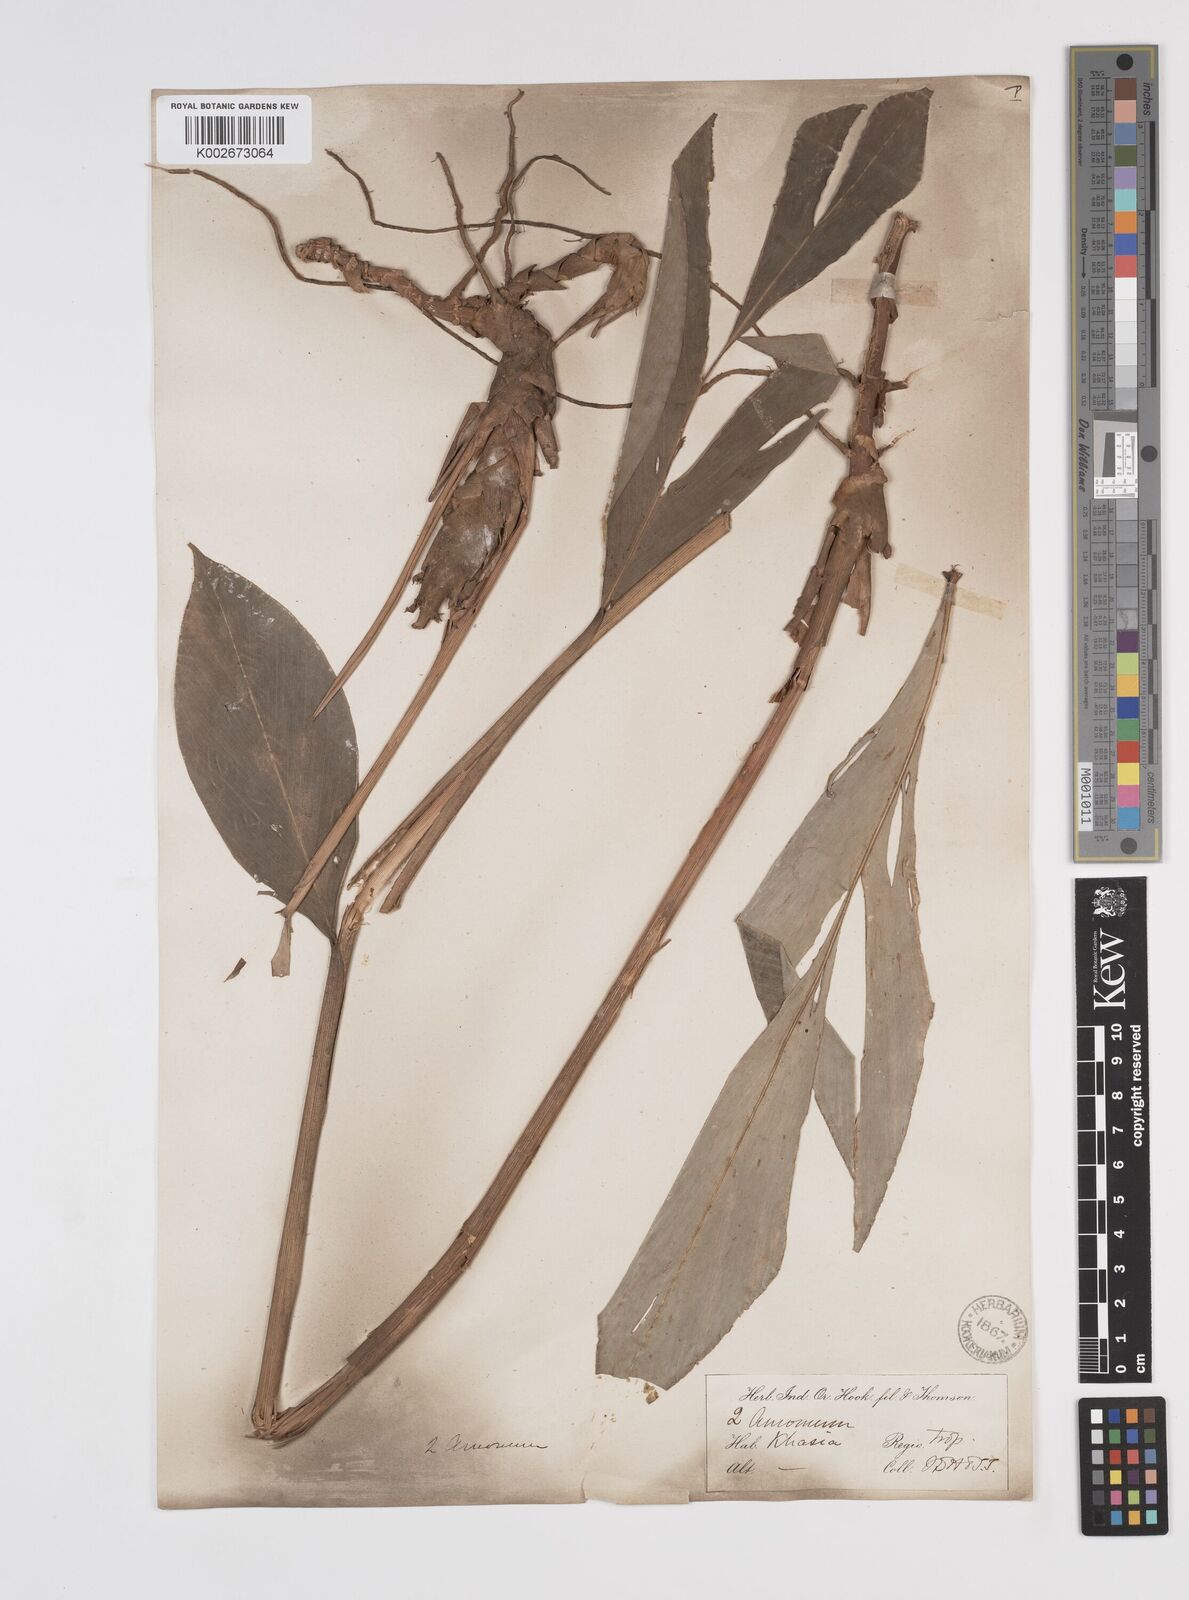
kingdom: Plantae
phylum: Tracheophyta
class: Liliopsida
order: Zingiberales
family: Zingiberaceae
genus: Wurfbainia
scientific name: Wurfbainia aromatica
